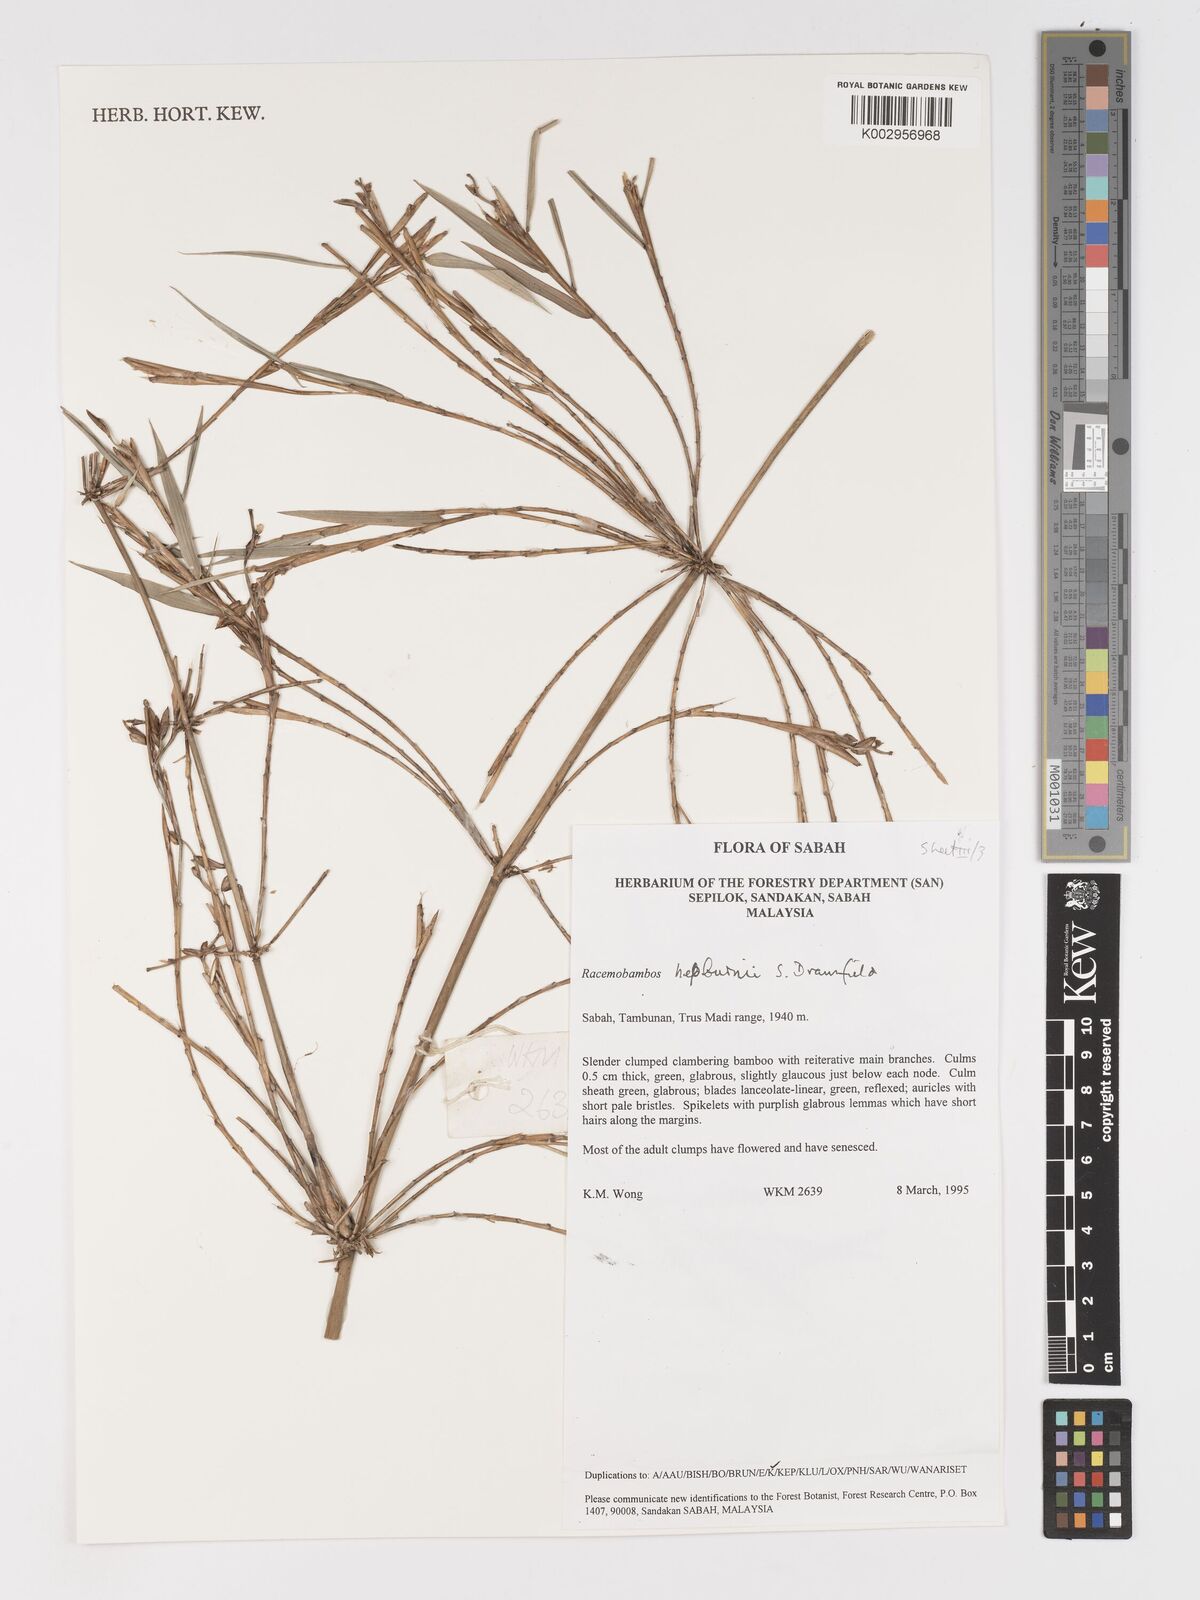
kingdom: Plantae
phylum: Tracheophyta
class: Liliopsida
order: Poales
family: Poaceae
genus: Racemobambos
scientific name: Racemobambos hepburnii
